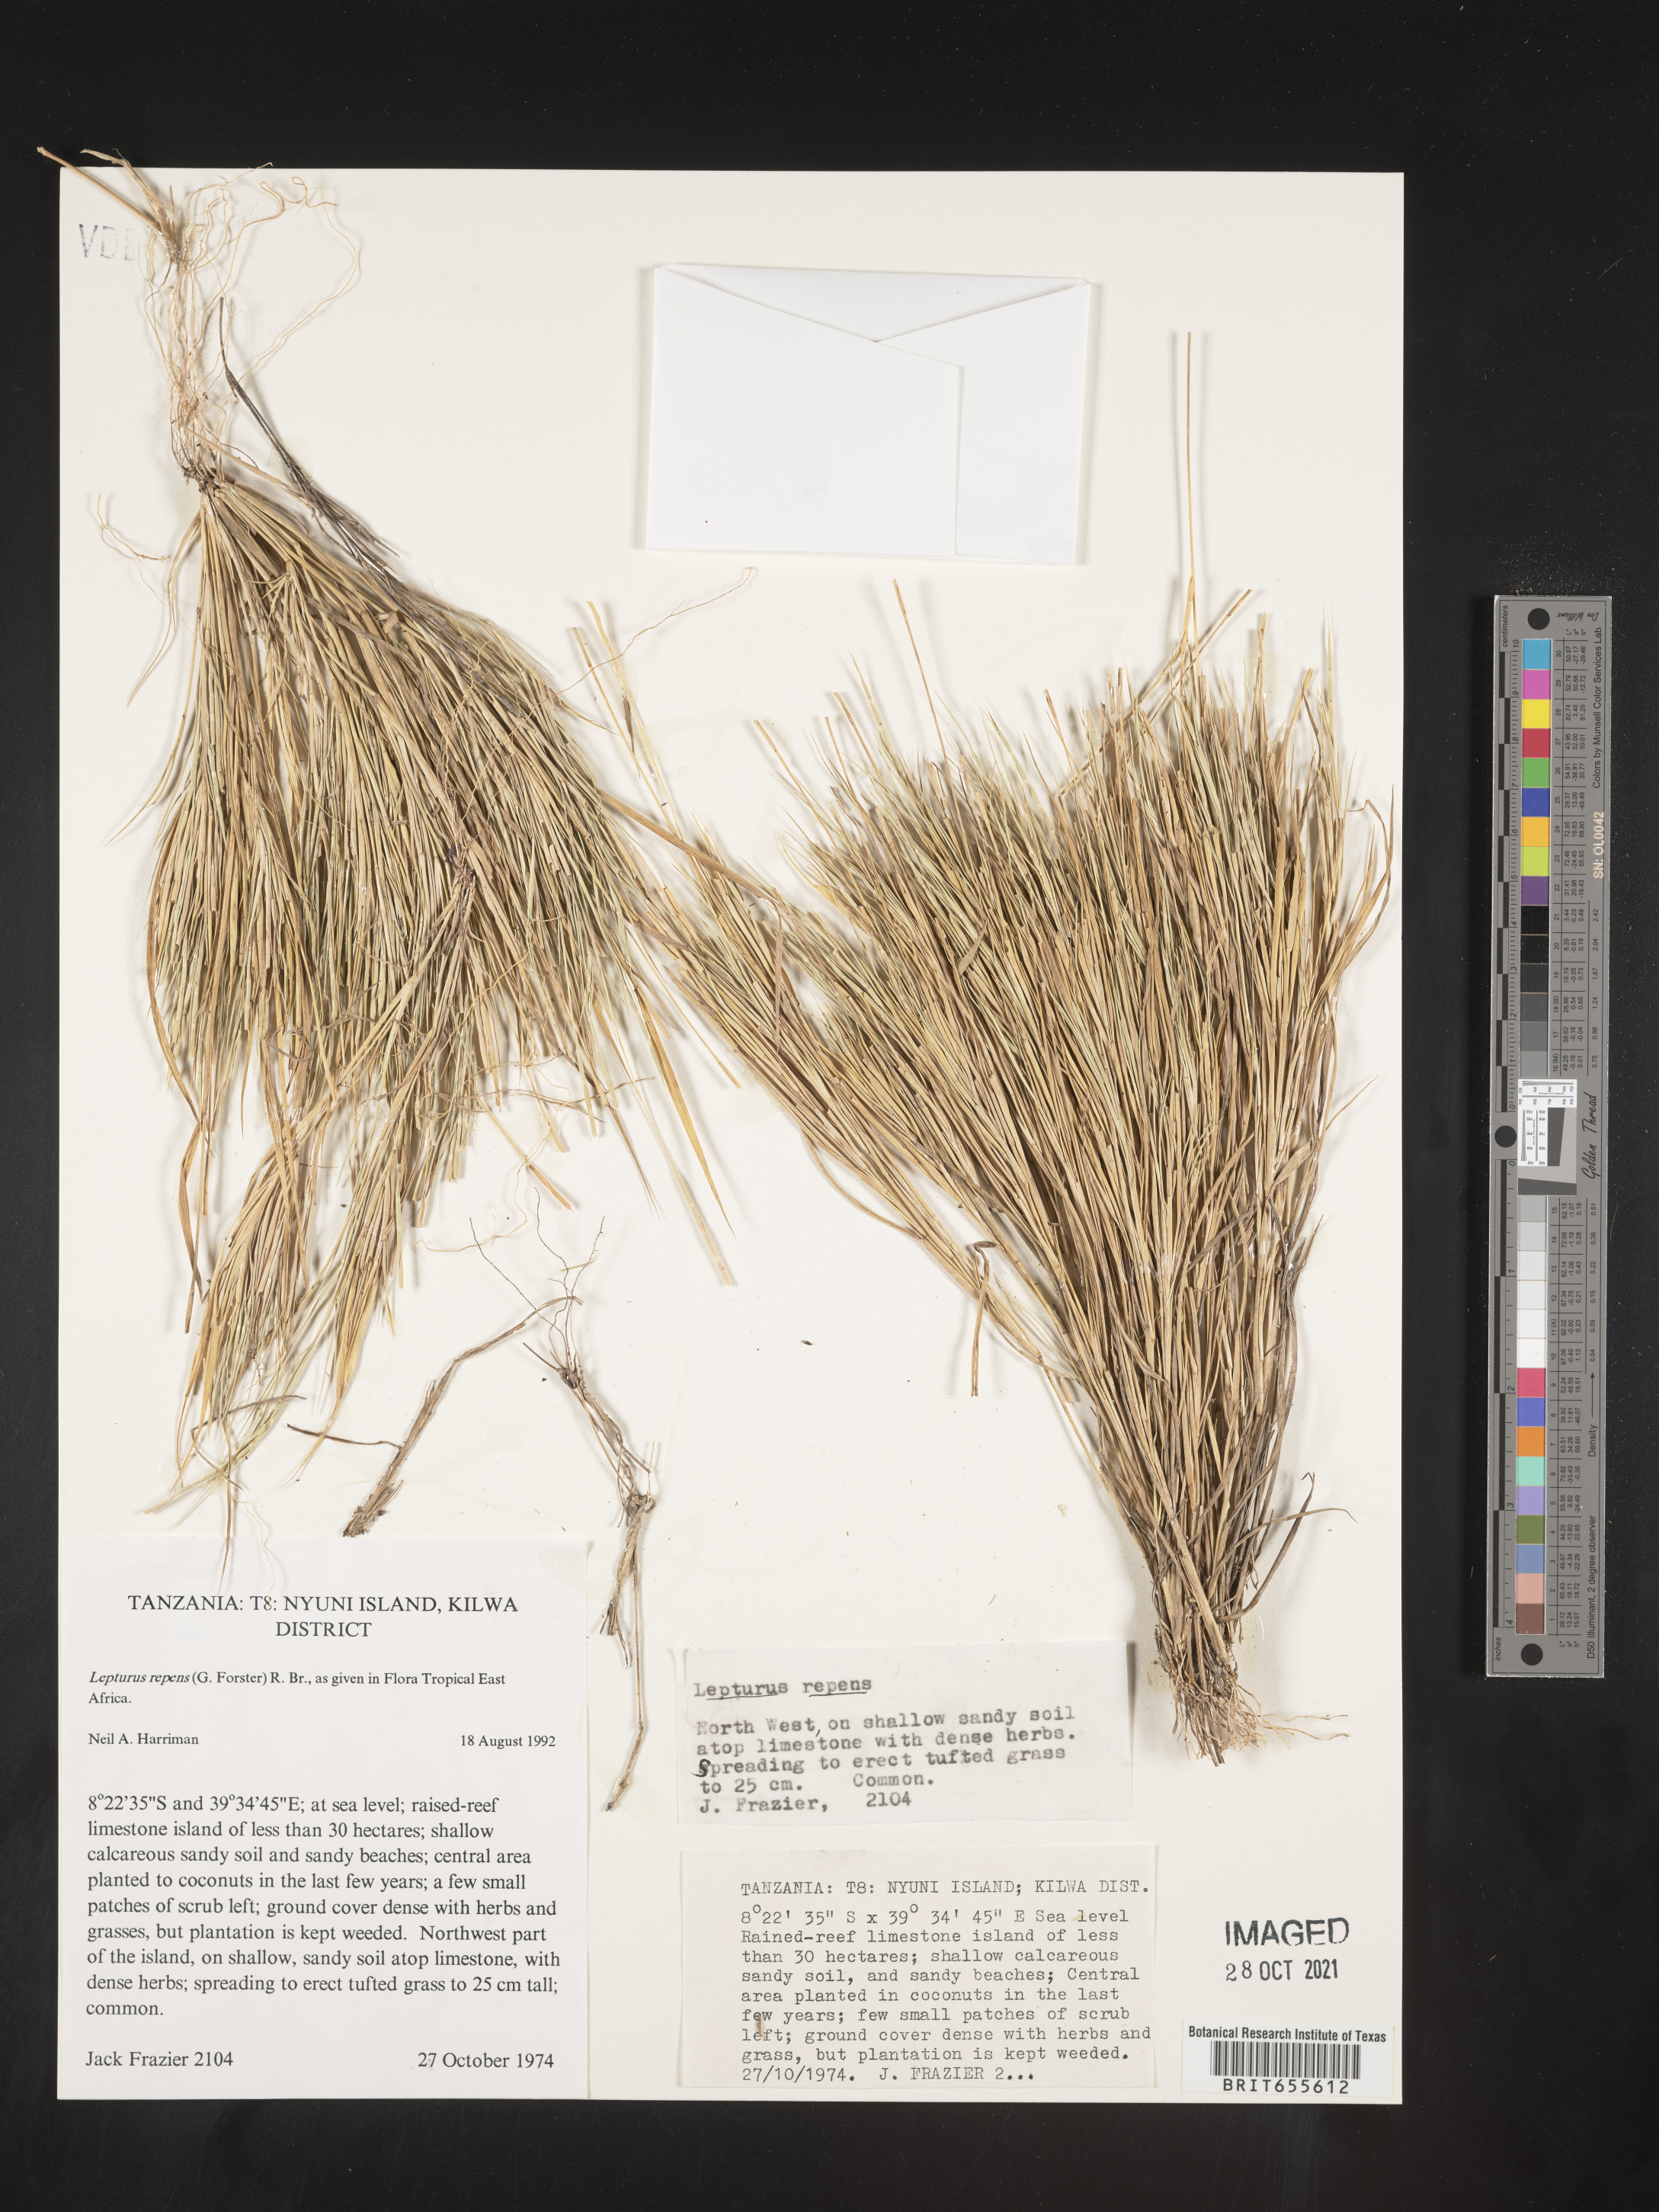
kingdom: Plantae
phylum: Tracheophyta
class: Liliopsida
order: Poales
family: Poaceae
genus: Lepturus
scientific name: Lepturus
